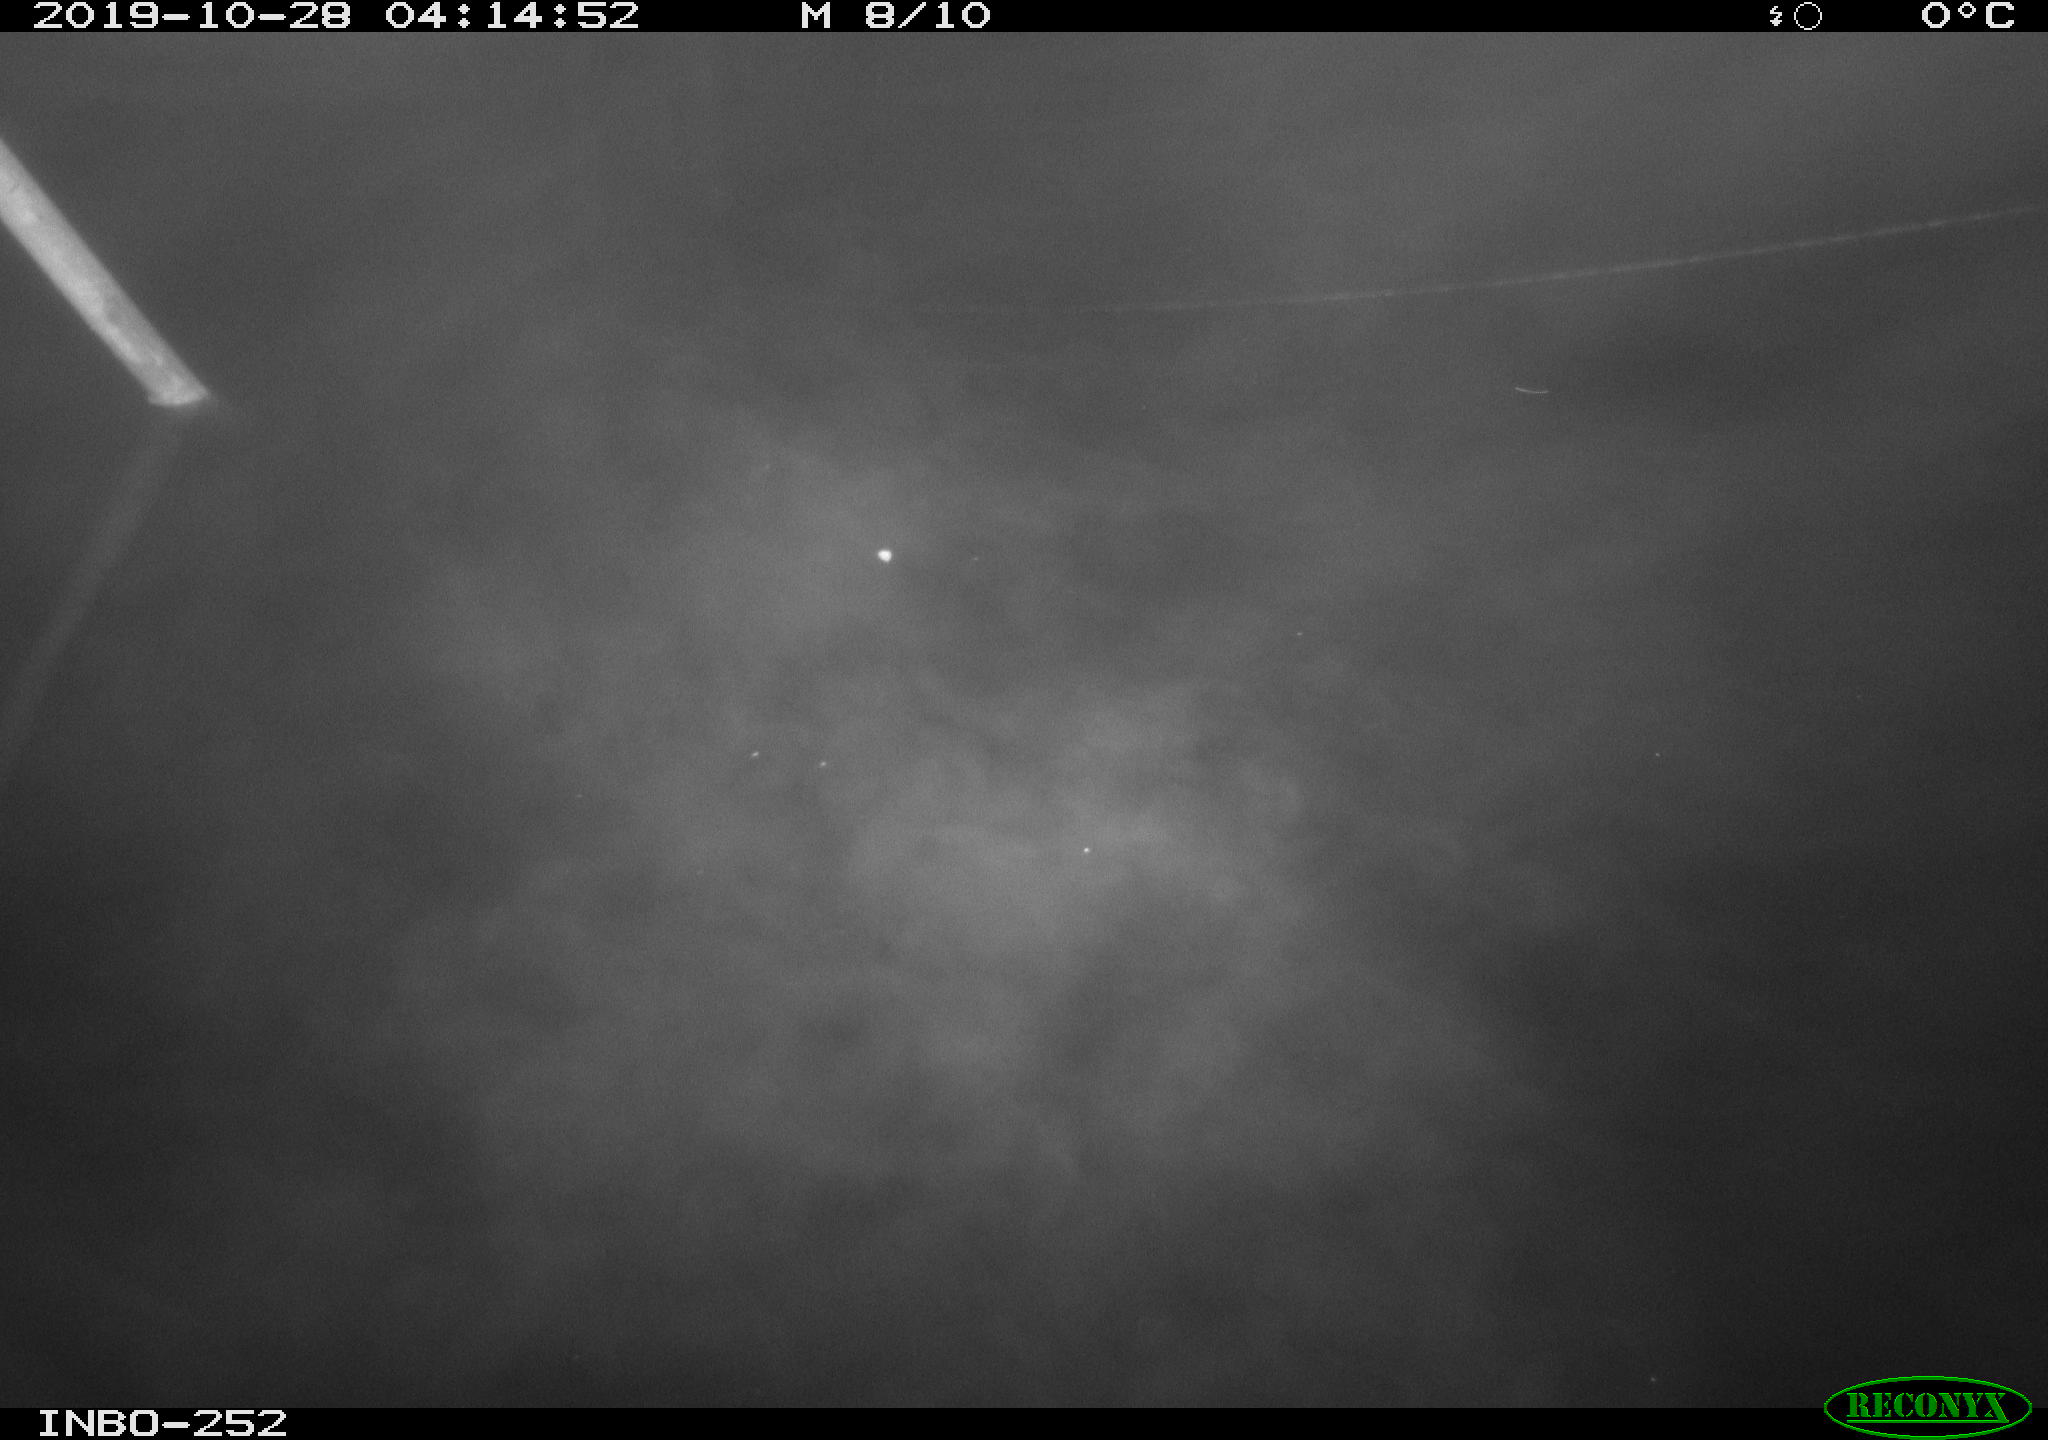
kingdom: Animalia
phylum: Chordata
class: Aves
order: Anseriformes
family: Anatidae
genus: Anas
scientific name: Anas platyrhynchos
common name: Mallard
